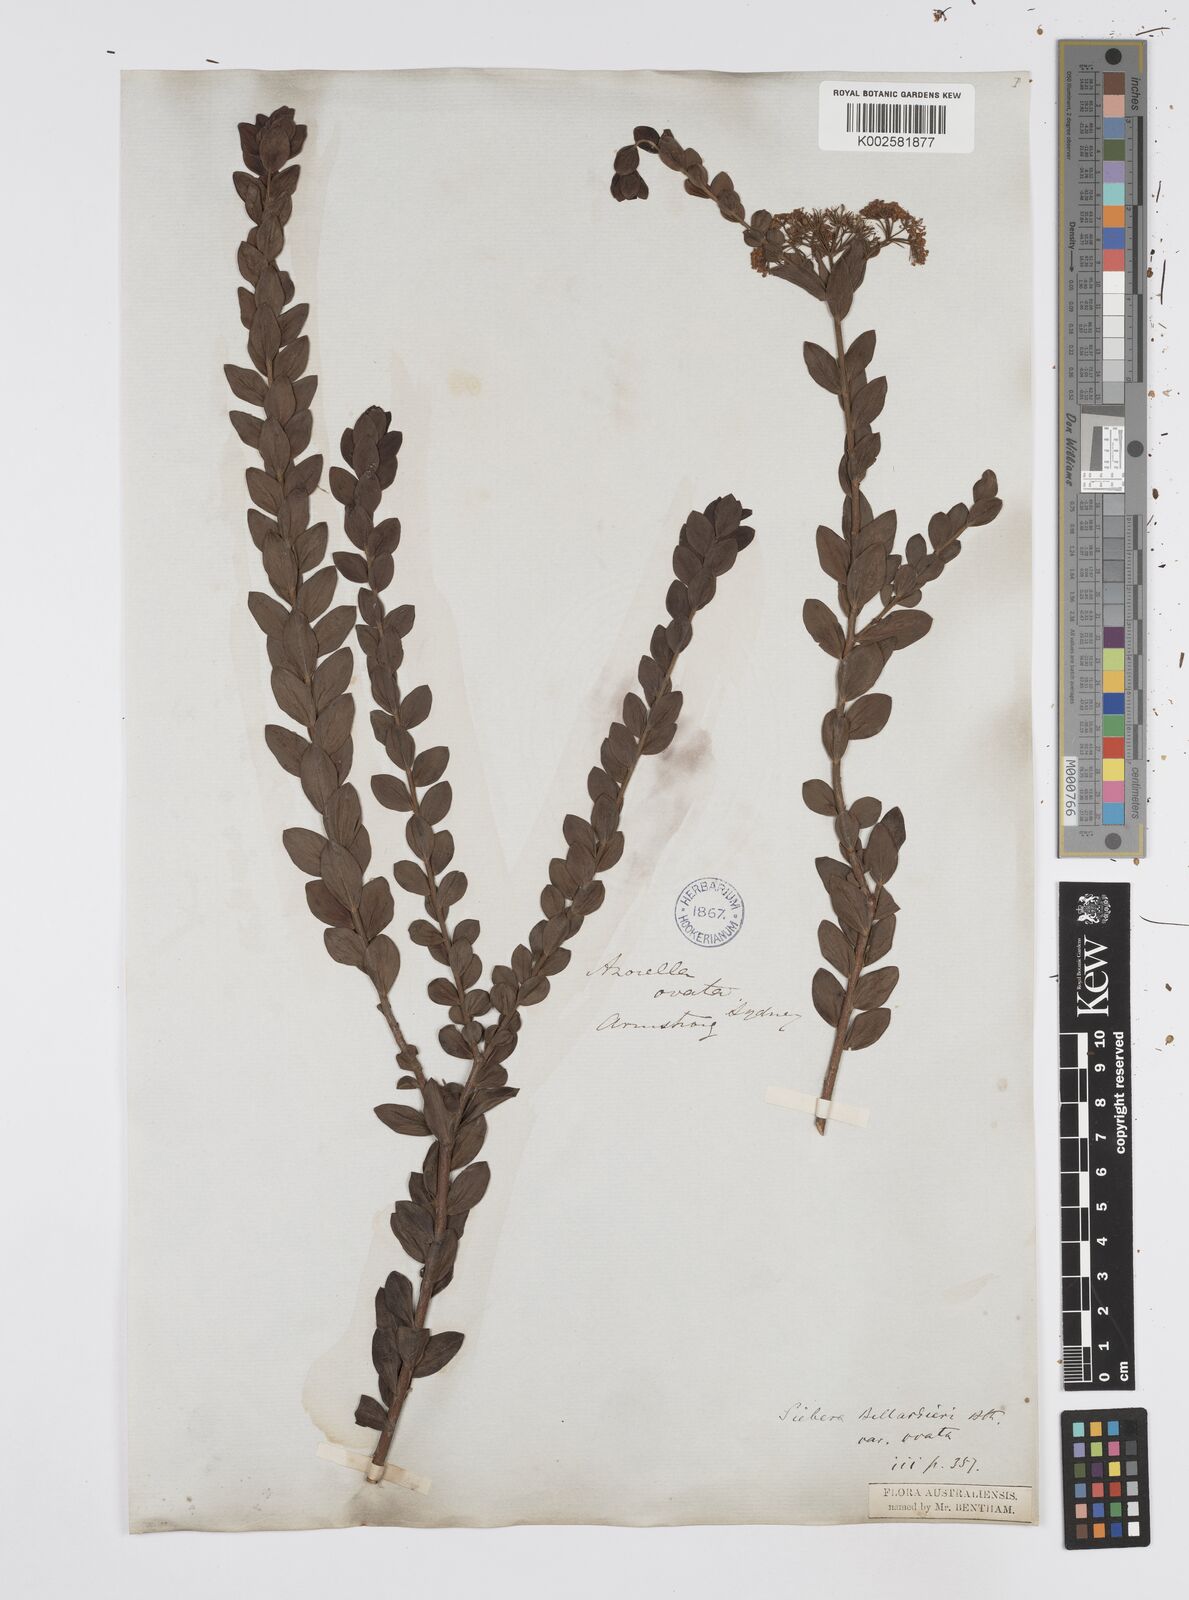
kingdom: Plantae
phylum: Tracheophyta
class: Magnoliopsida
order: Apiales
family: Apiaceae
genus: Platysace
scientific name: Platysace lanceolata
